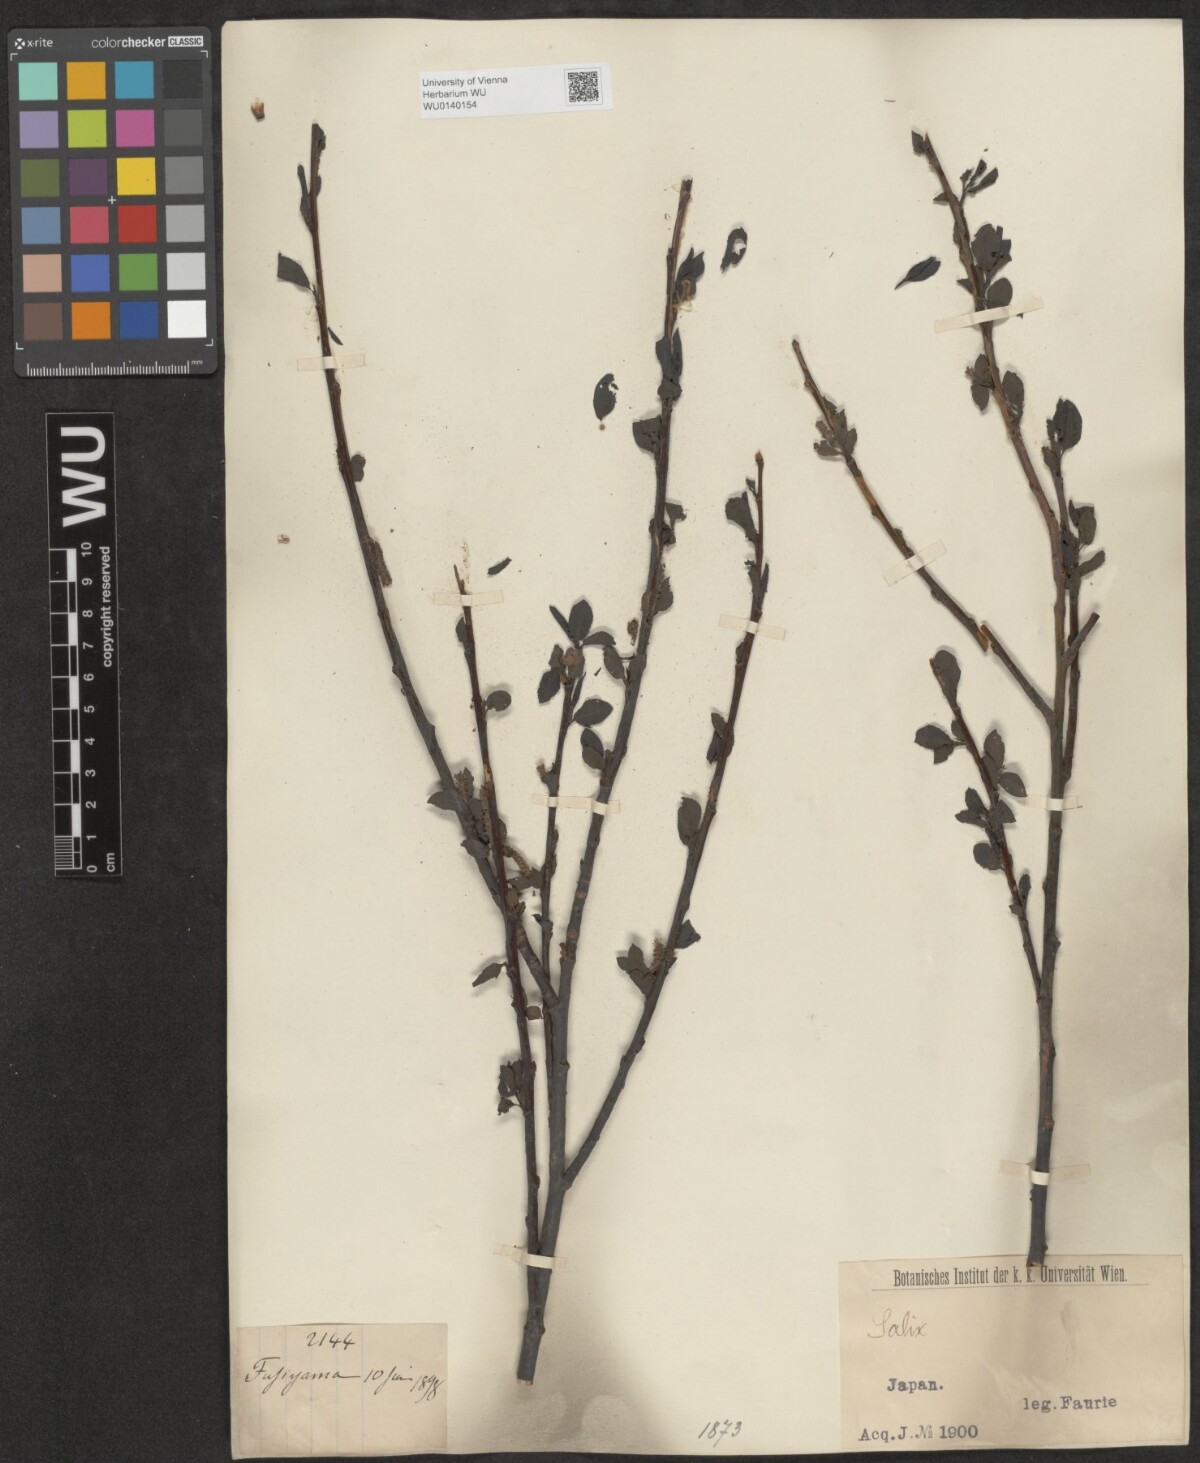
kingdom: Plantae
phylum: Tracheophyta
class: Magnoliopsida
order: Malpighiales
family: Salicaceae
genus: Salix
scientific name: Salix
